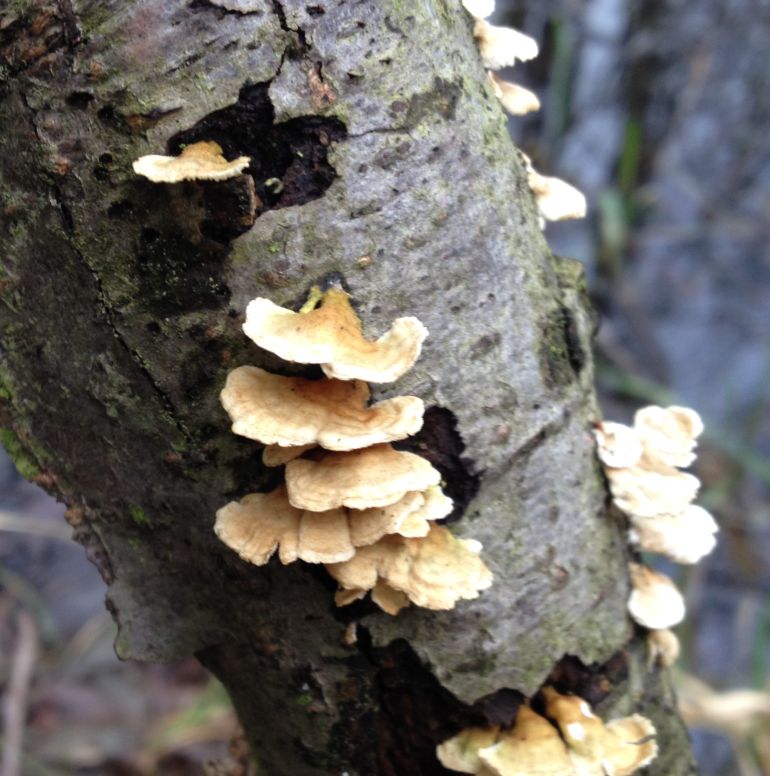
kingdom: Fungi
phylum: Basidiomycota
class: Agaricomycetes
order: Amylocorticiales
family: Amylocorticiaceae
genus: Plicaturopsis
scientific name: Plicaturopsis crispa
